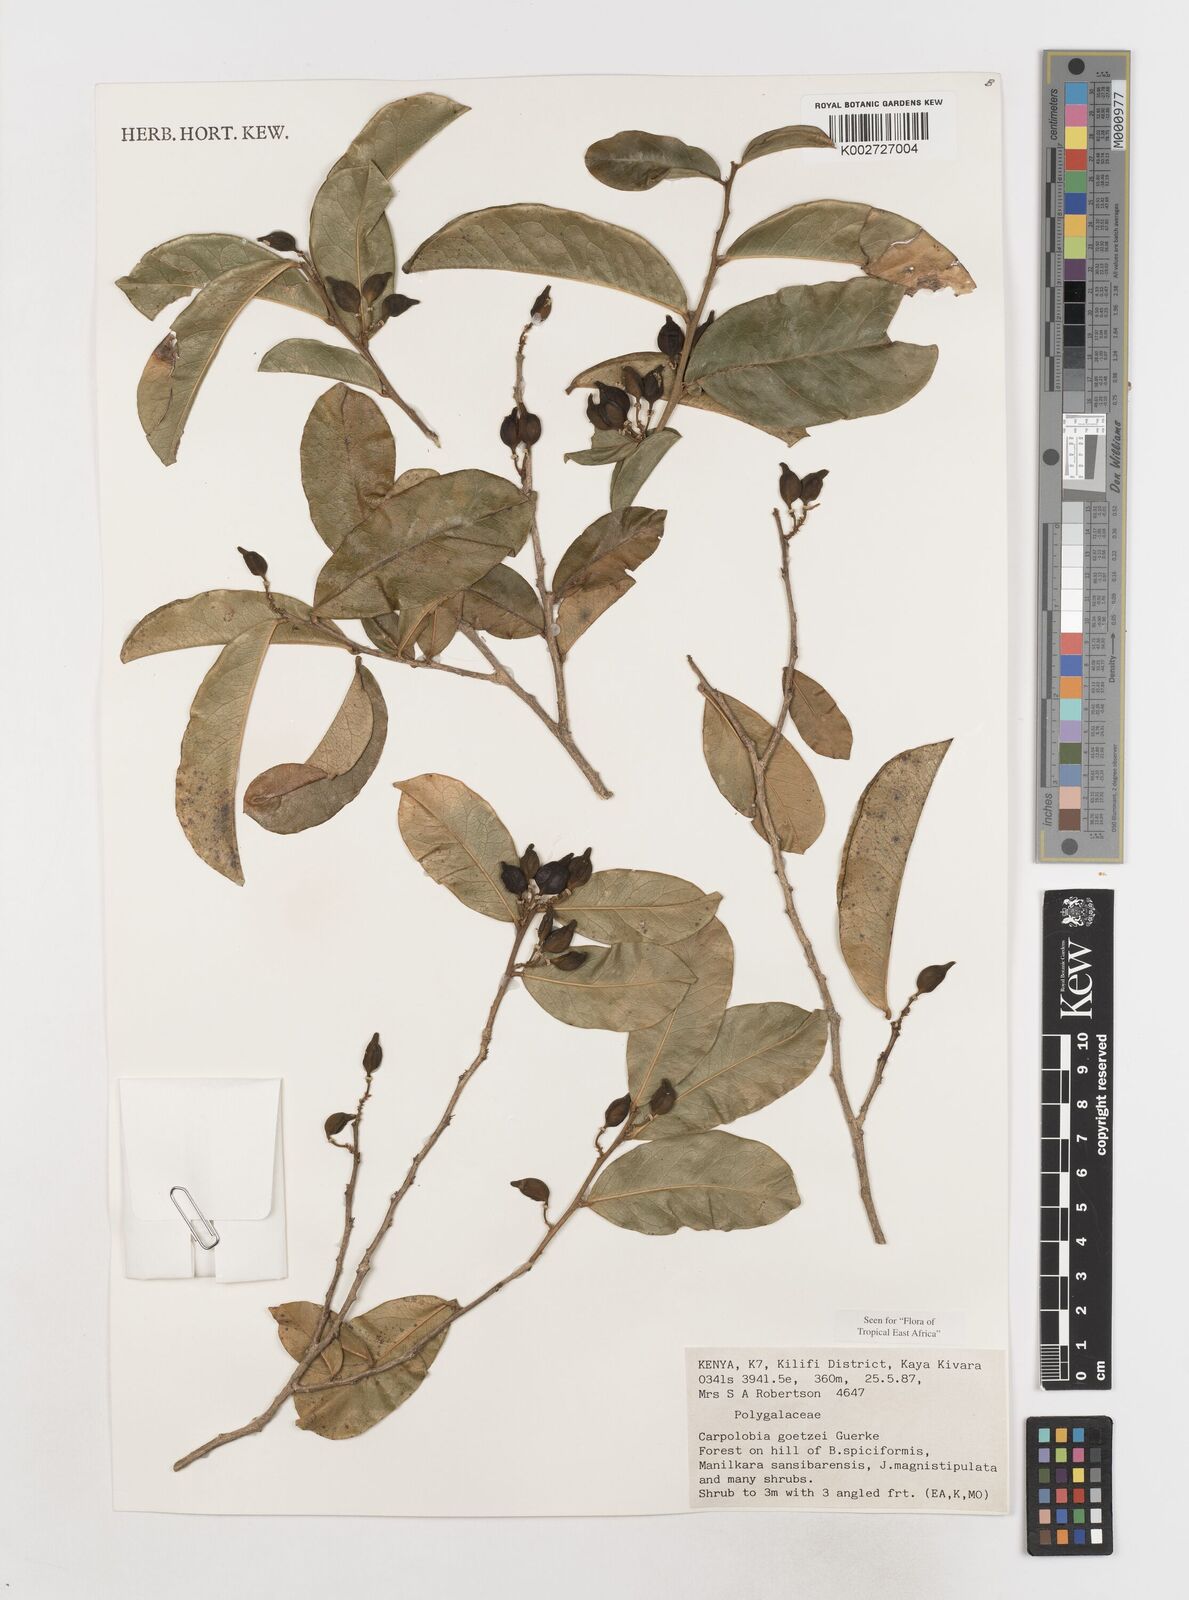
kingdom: Plantae
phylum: Tracheophyta
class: Magnoliopsida
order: Fabales
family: Polygalaceae
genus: Carpolobia
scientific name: Carpolobia goetzei
